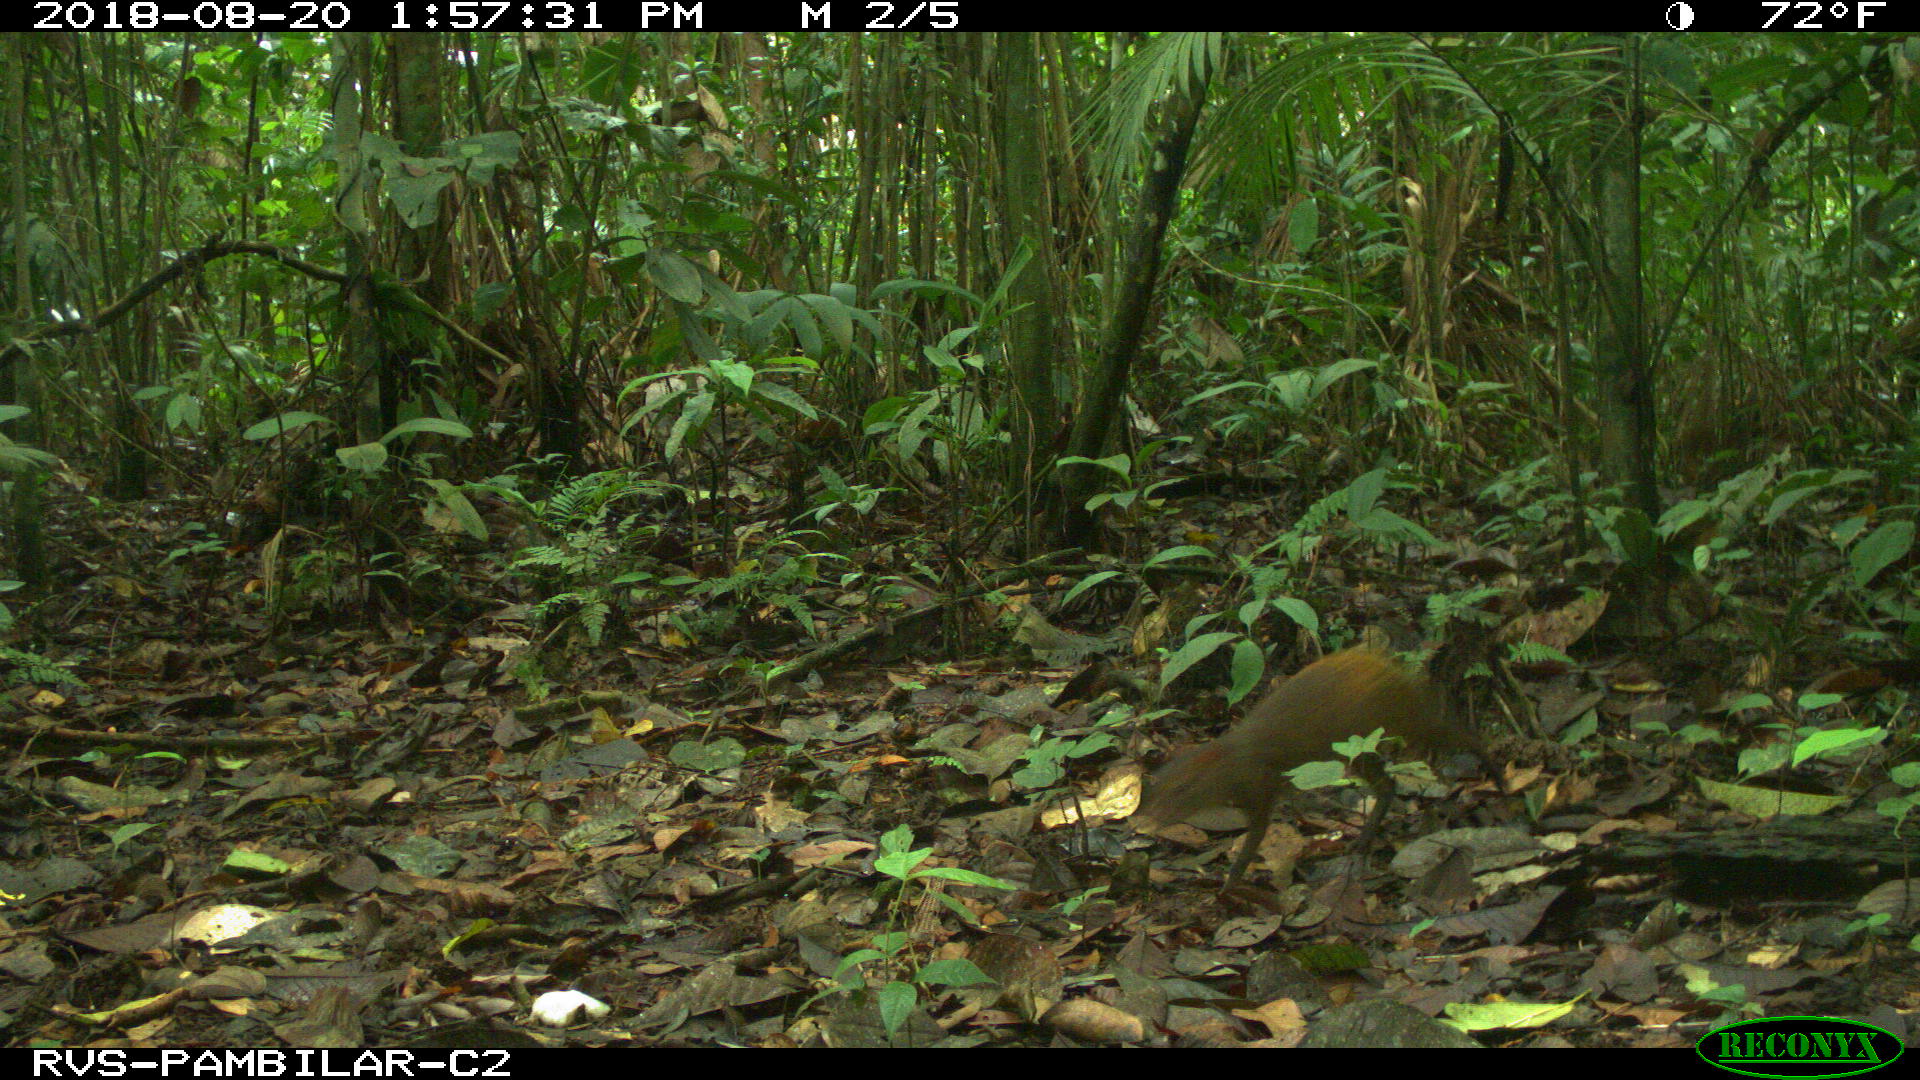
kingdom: Animalia
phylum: Chordata
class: Mammalia
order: Rodentia
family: Dasyproctidae
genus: Dasyprocta
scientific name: Dasyprocta punctata
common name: Central american agouti
